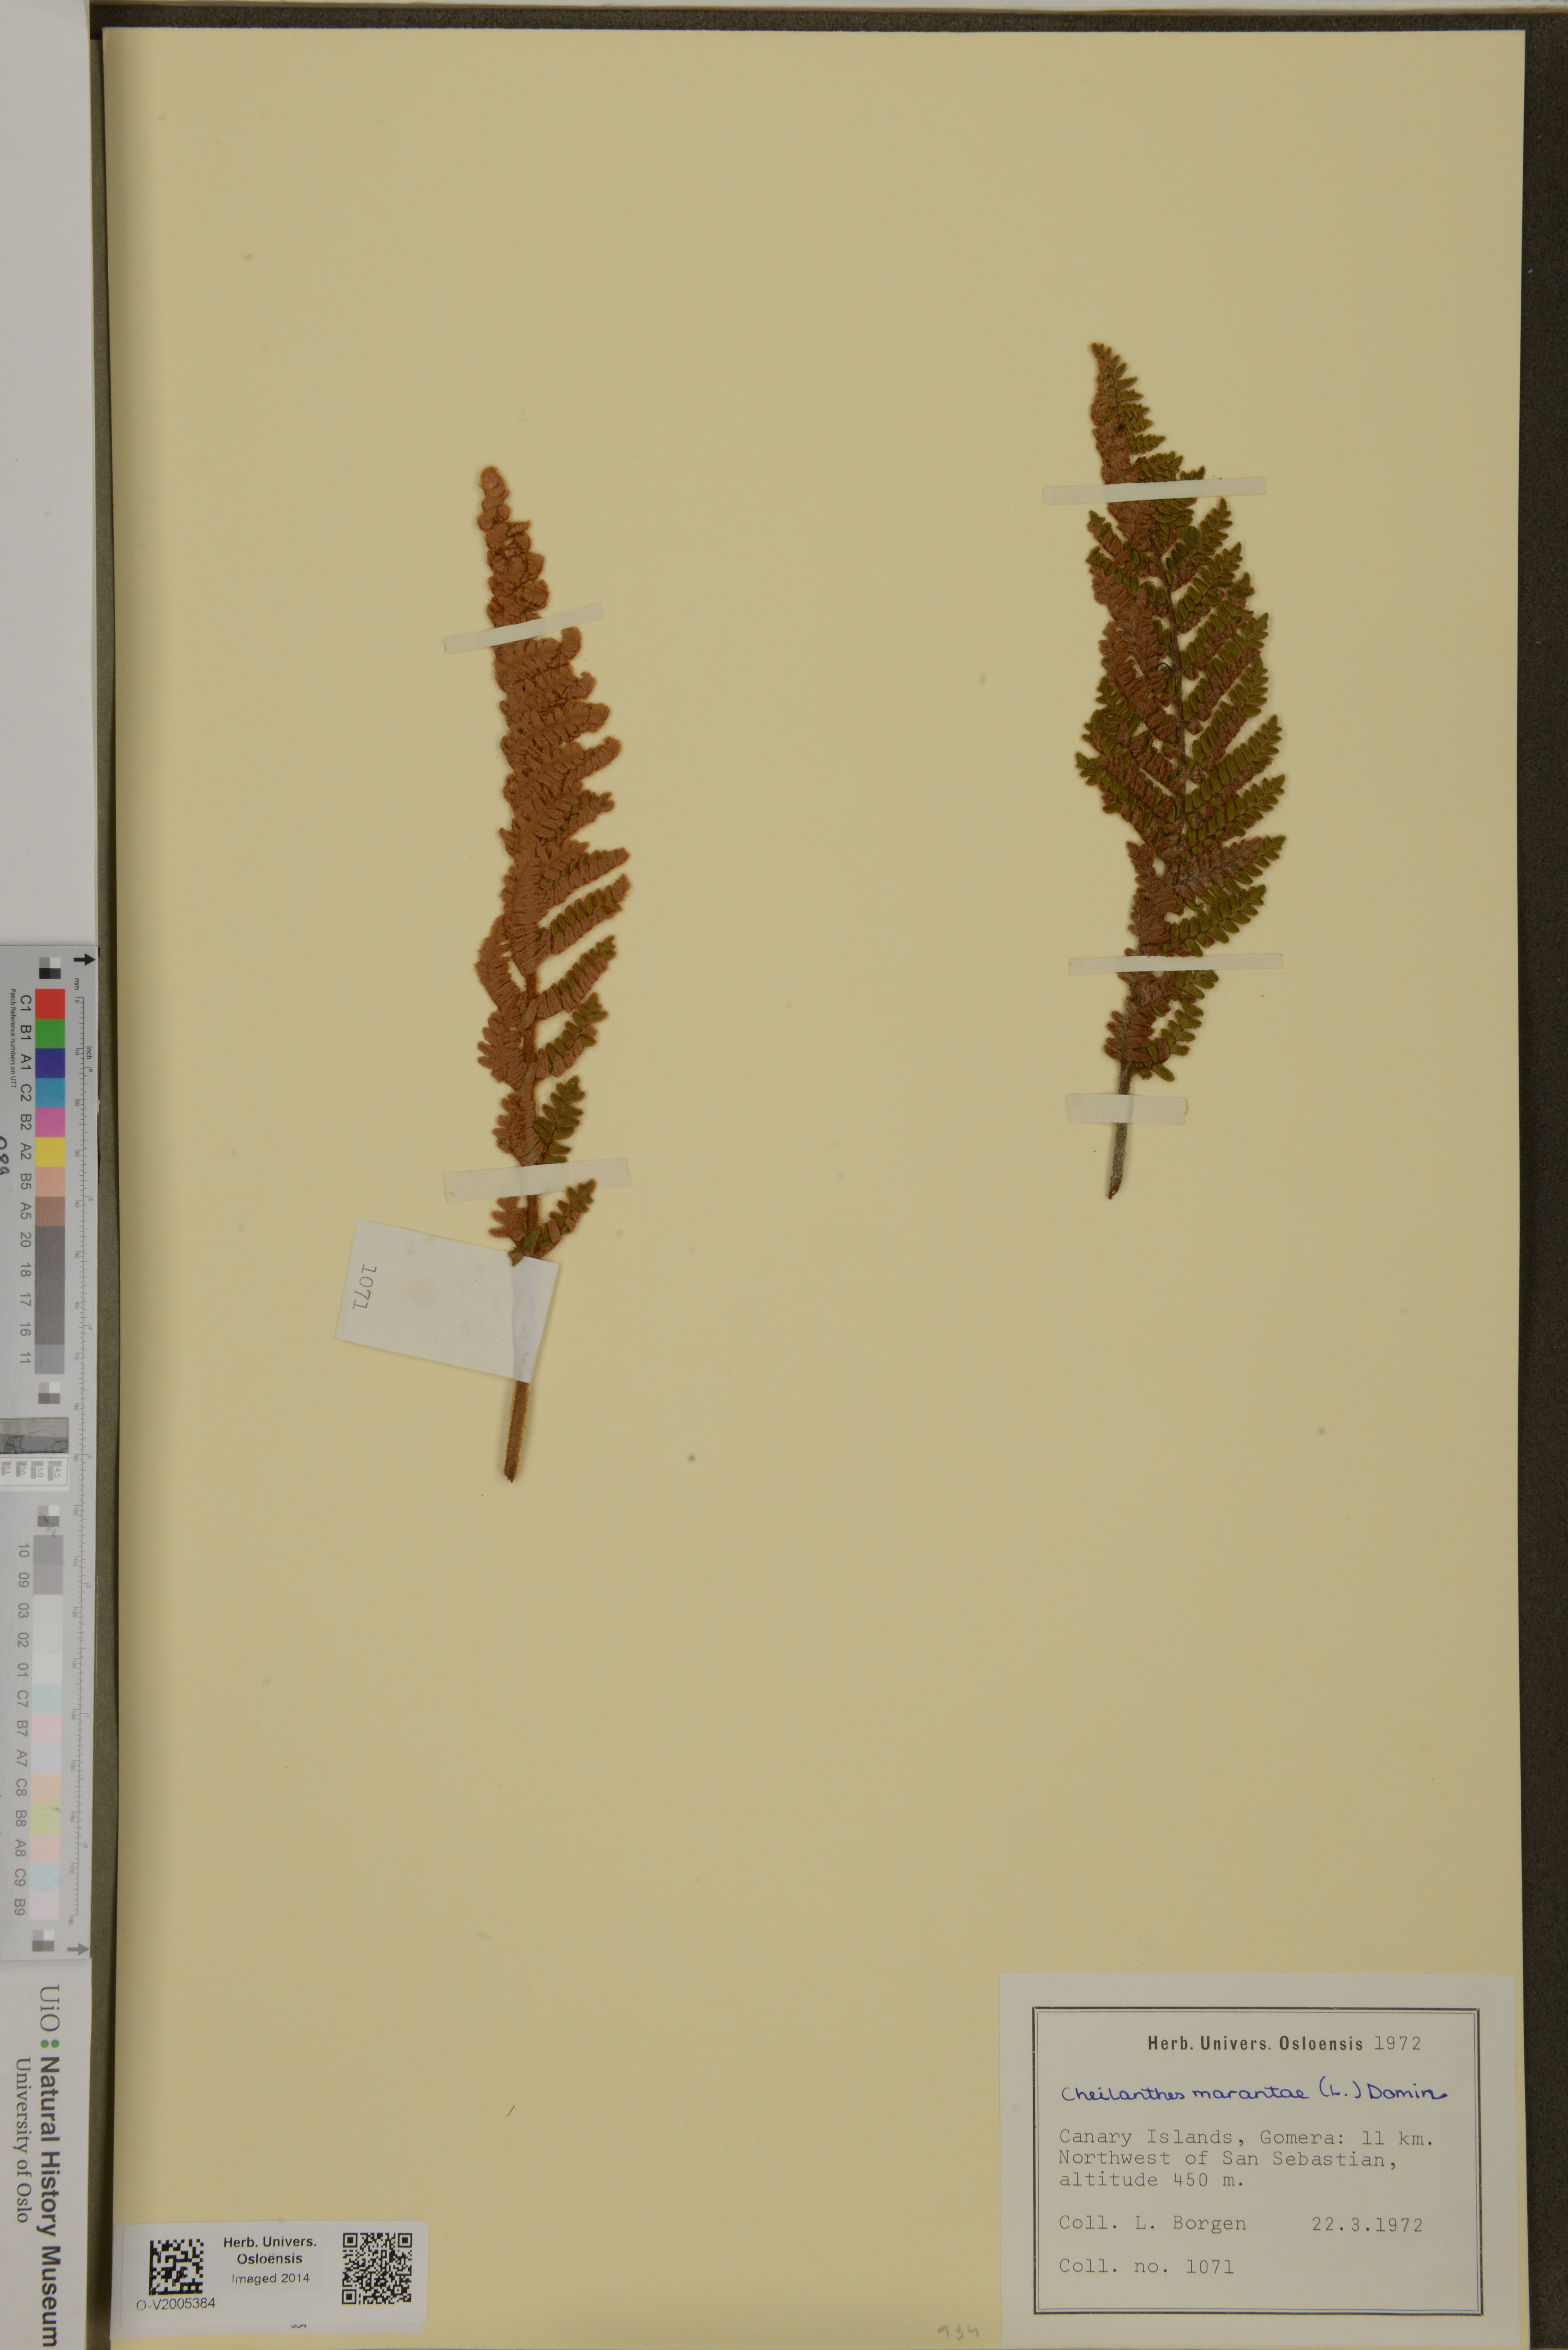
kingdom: Plantae
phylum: Tracheophyta
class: Polypodiopsida
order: Polypodiales
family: Pteridaceae
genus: Paragymnopteris
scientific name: Paragymnopteris marantae
